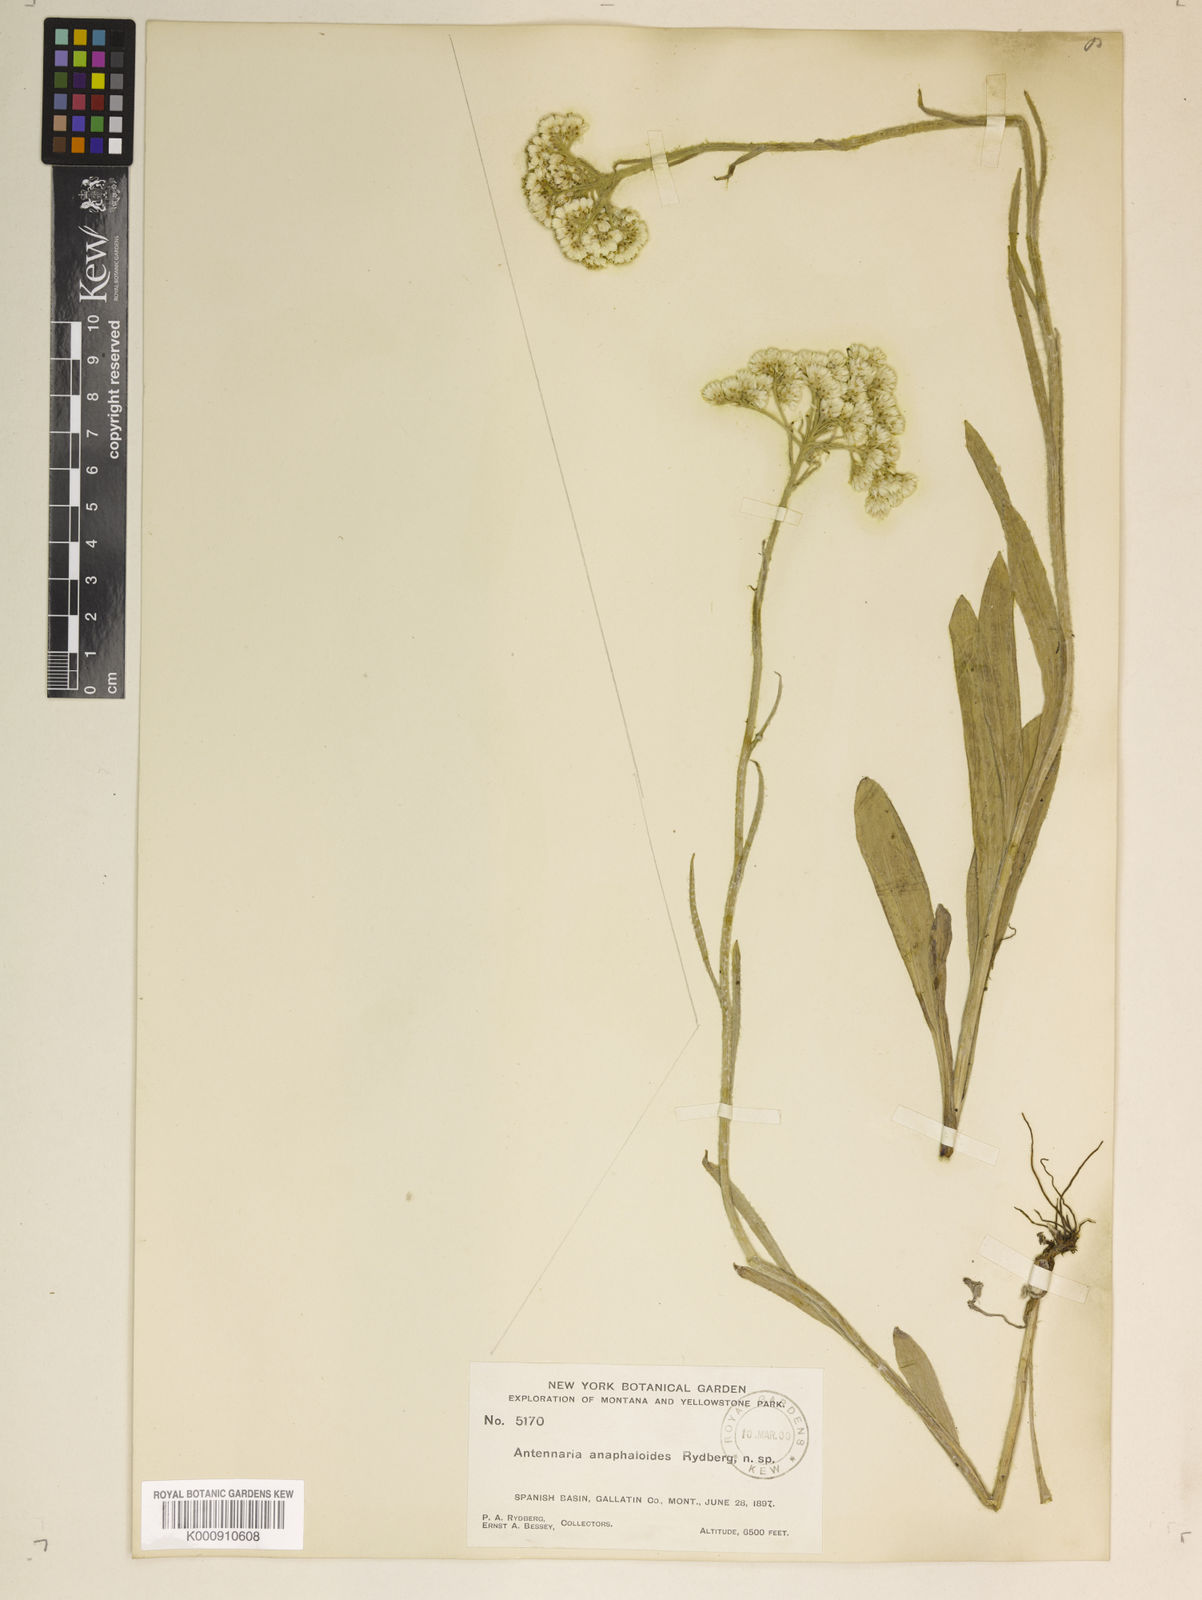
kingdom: Plantae
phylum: Tracheophyta
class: Magnoliopsida
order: Asterales
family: Asteraceae
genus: Antennaria
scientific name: Antennaria anaphaloides
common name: Tall pussytoes
